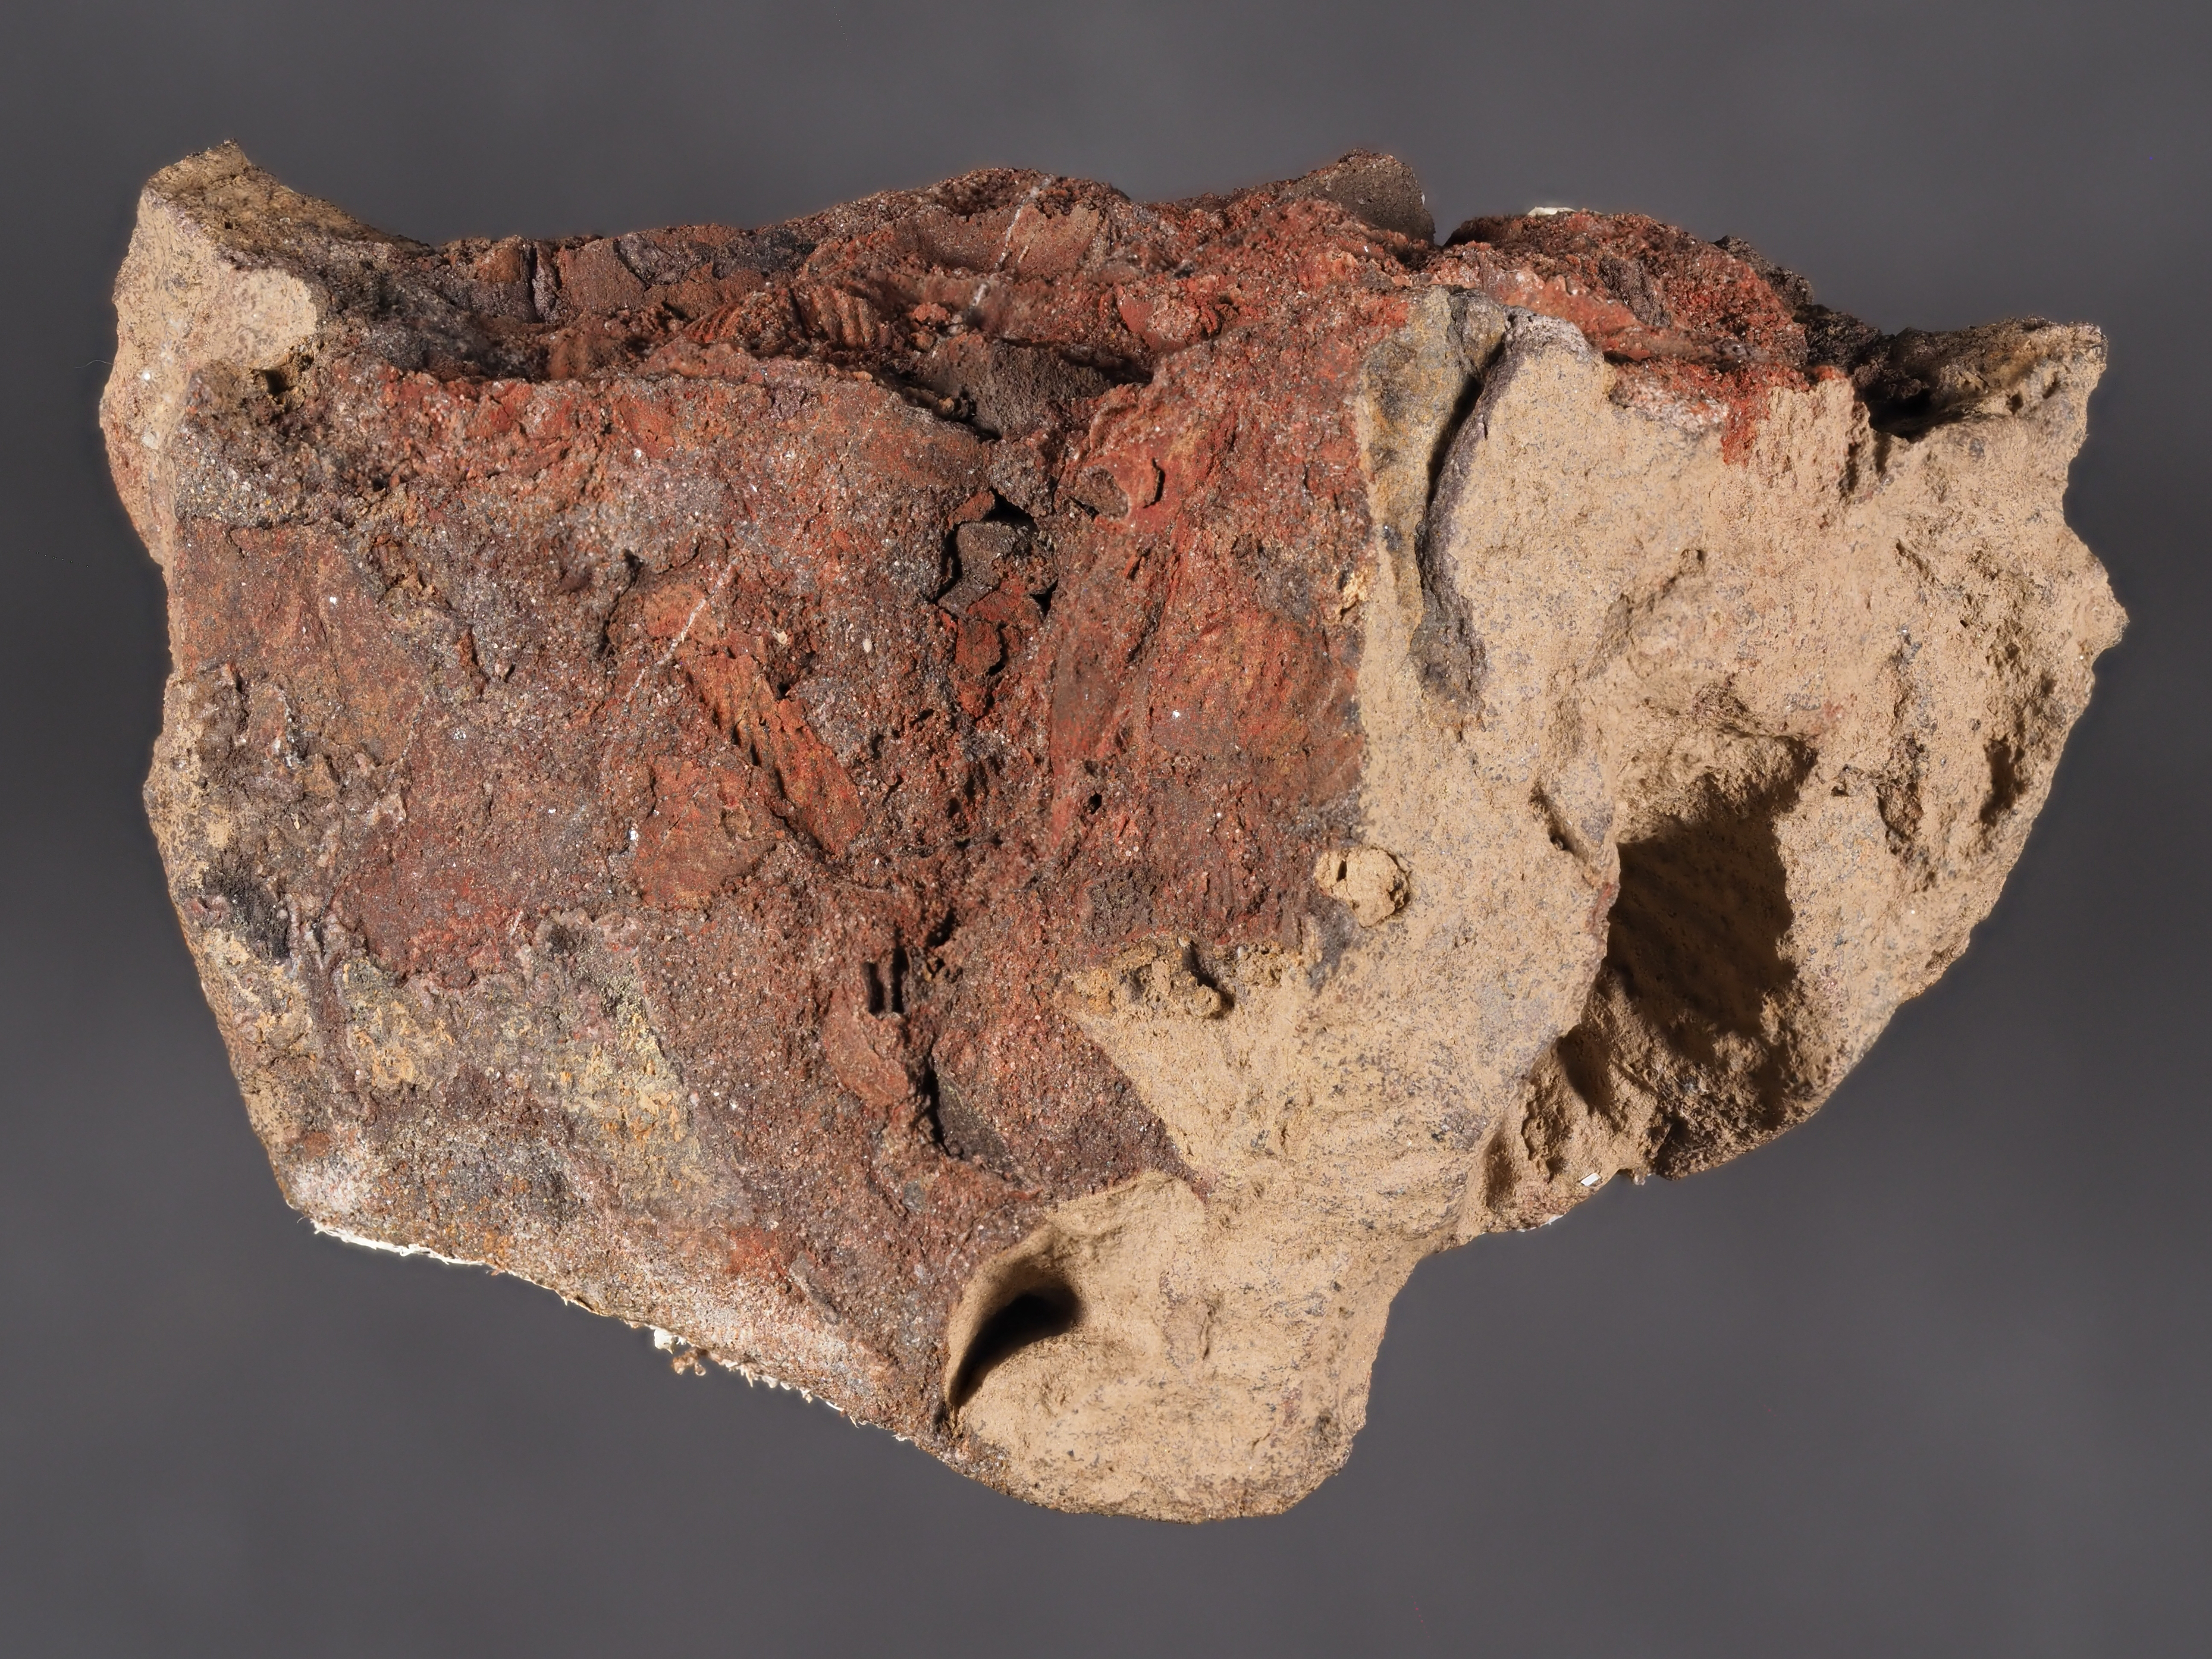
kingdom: Animalia
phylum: Brachiopoda
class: Rhynchonellata
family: Hysterolitidae
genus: Arduspirifer
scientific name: Arduspirifer
